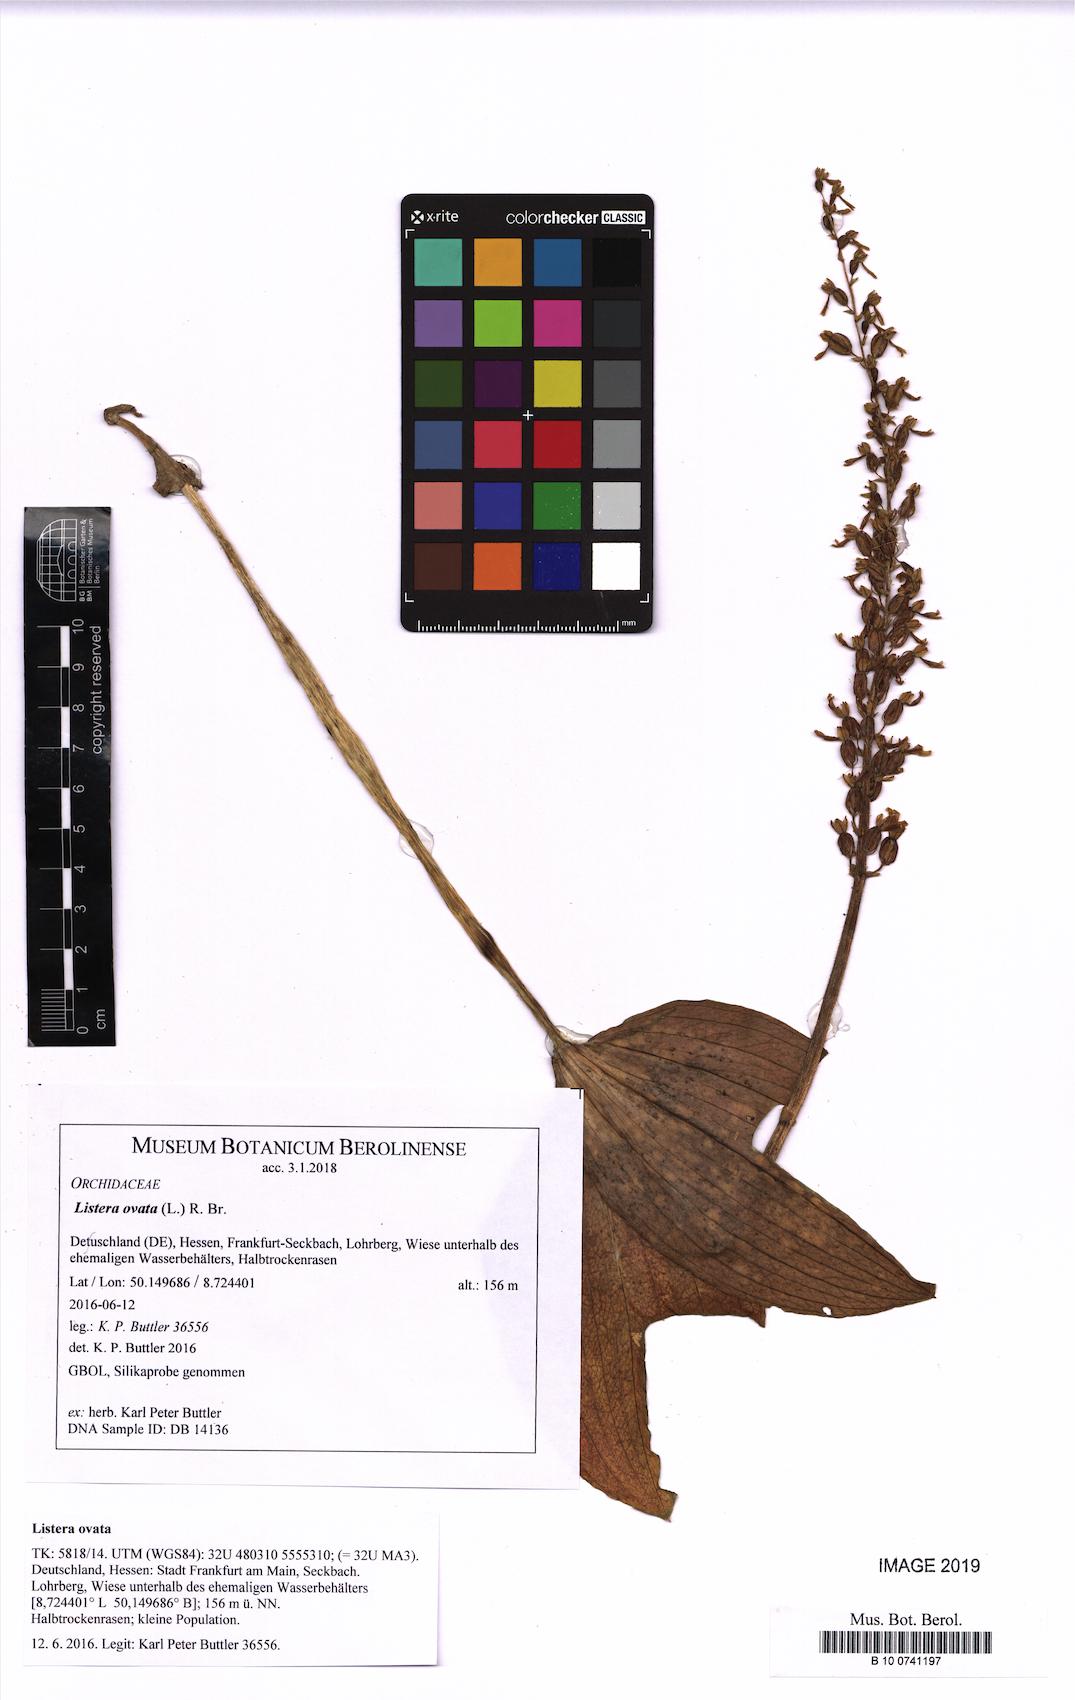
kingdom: Plantae
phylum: Tracheophyta
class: Liliopsida
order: Asparagales
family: Orchidaceae
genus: Neottia
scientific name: Neottia ovata
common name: Common twayblade
